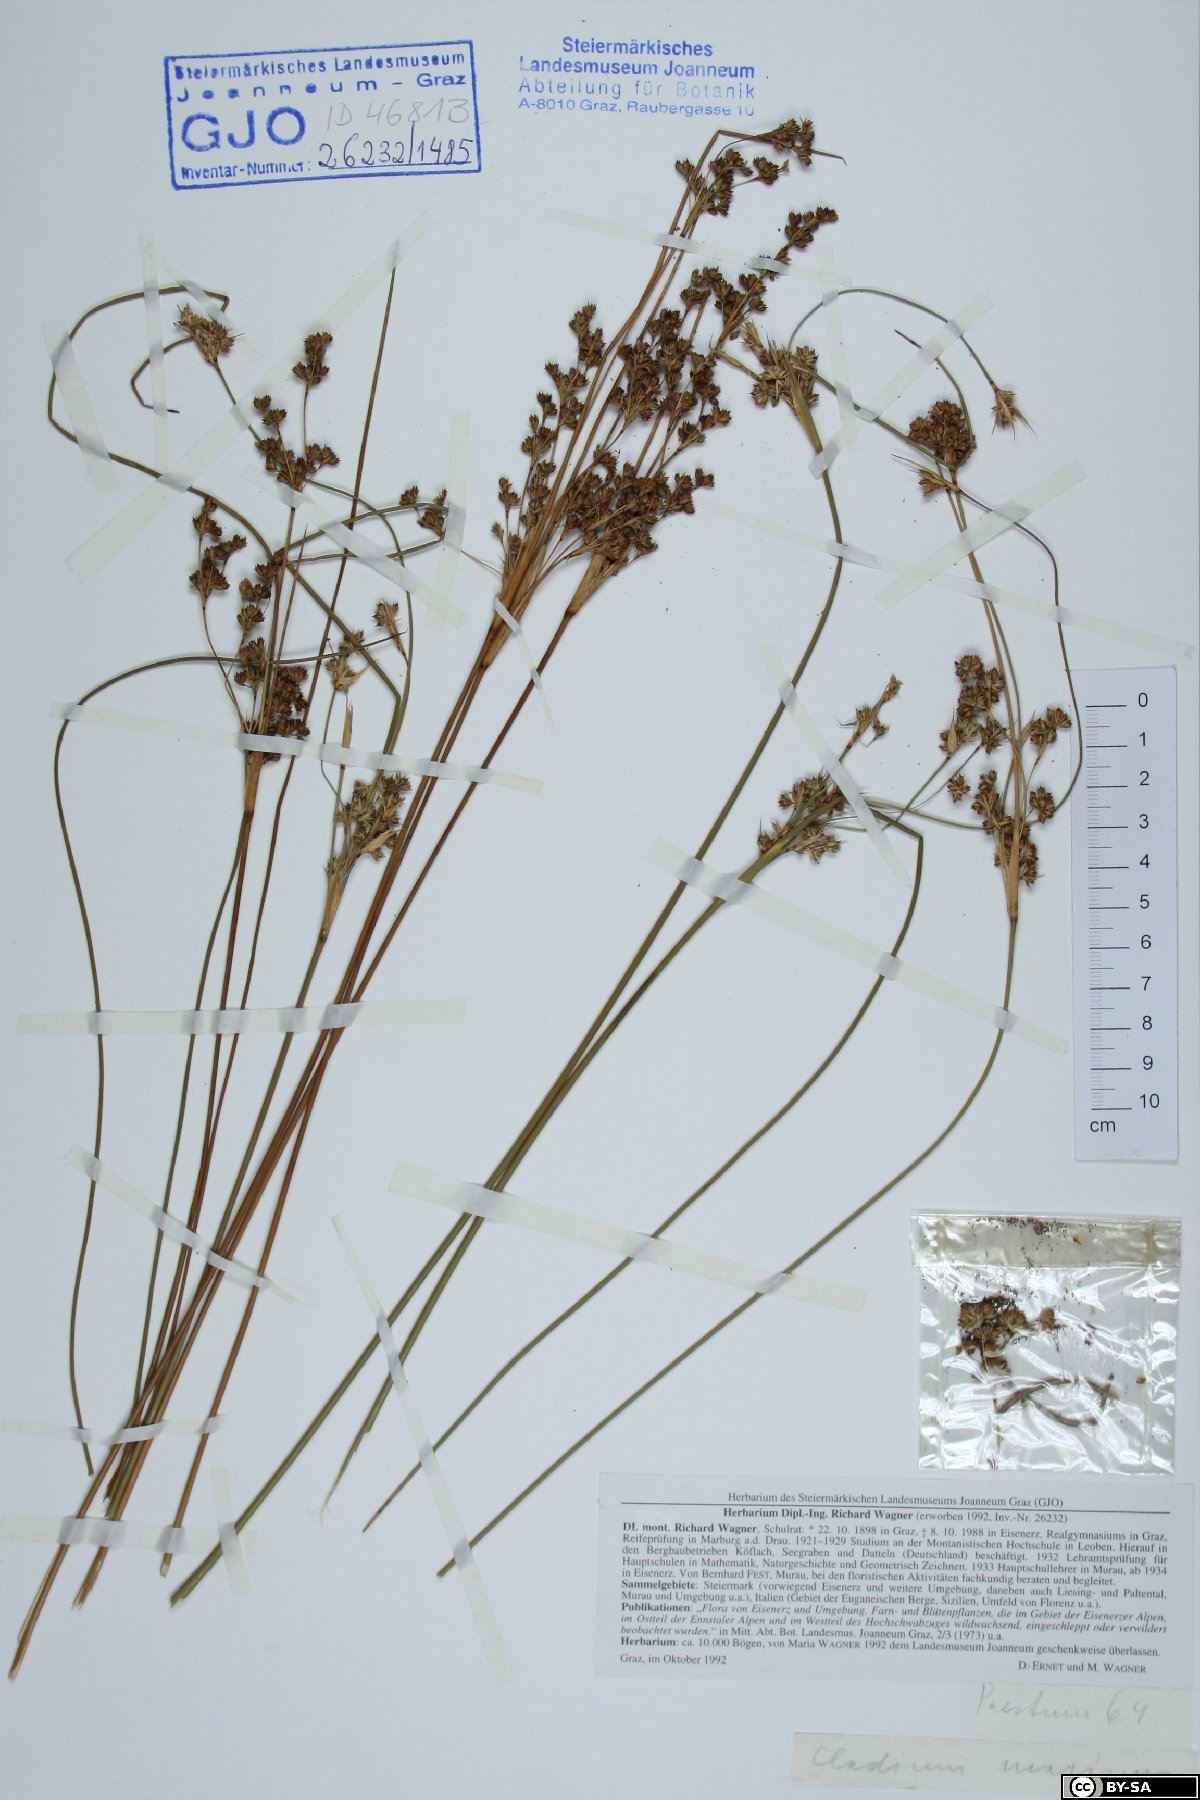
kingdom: Plantae
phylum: Tracheophyta
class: Liliopsida
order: Poales
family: Cyperaceae
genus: Cladium
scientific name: Cladium mariscus
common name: Great fen-sedge
